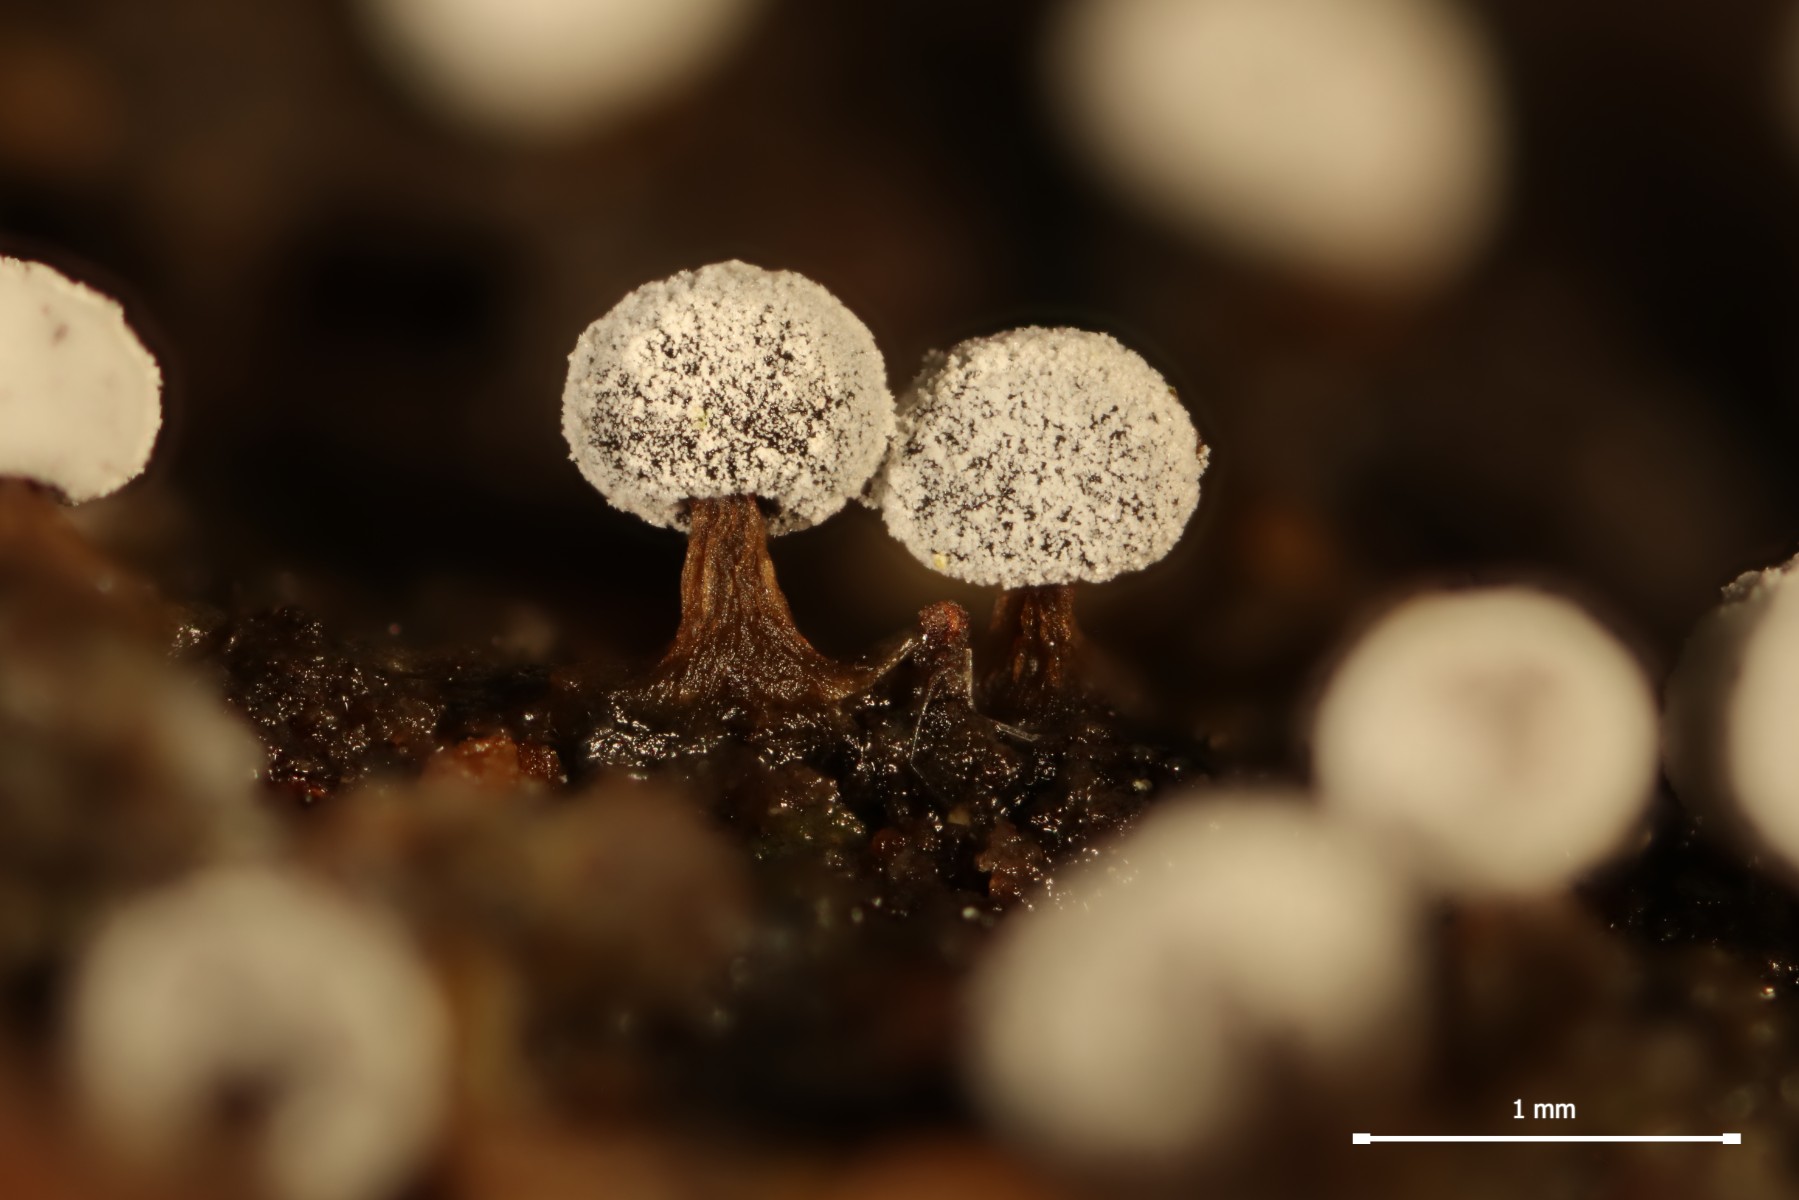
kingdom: Protozoa
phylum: Mycetozoa
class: Myxomycetes
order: Physarales
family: Didymiaceae
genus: Didymium
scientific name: Didymium melanospermum
